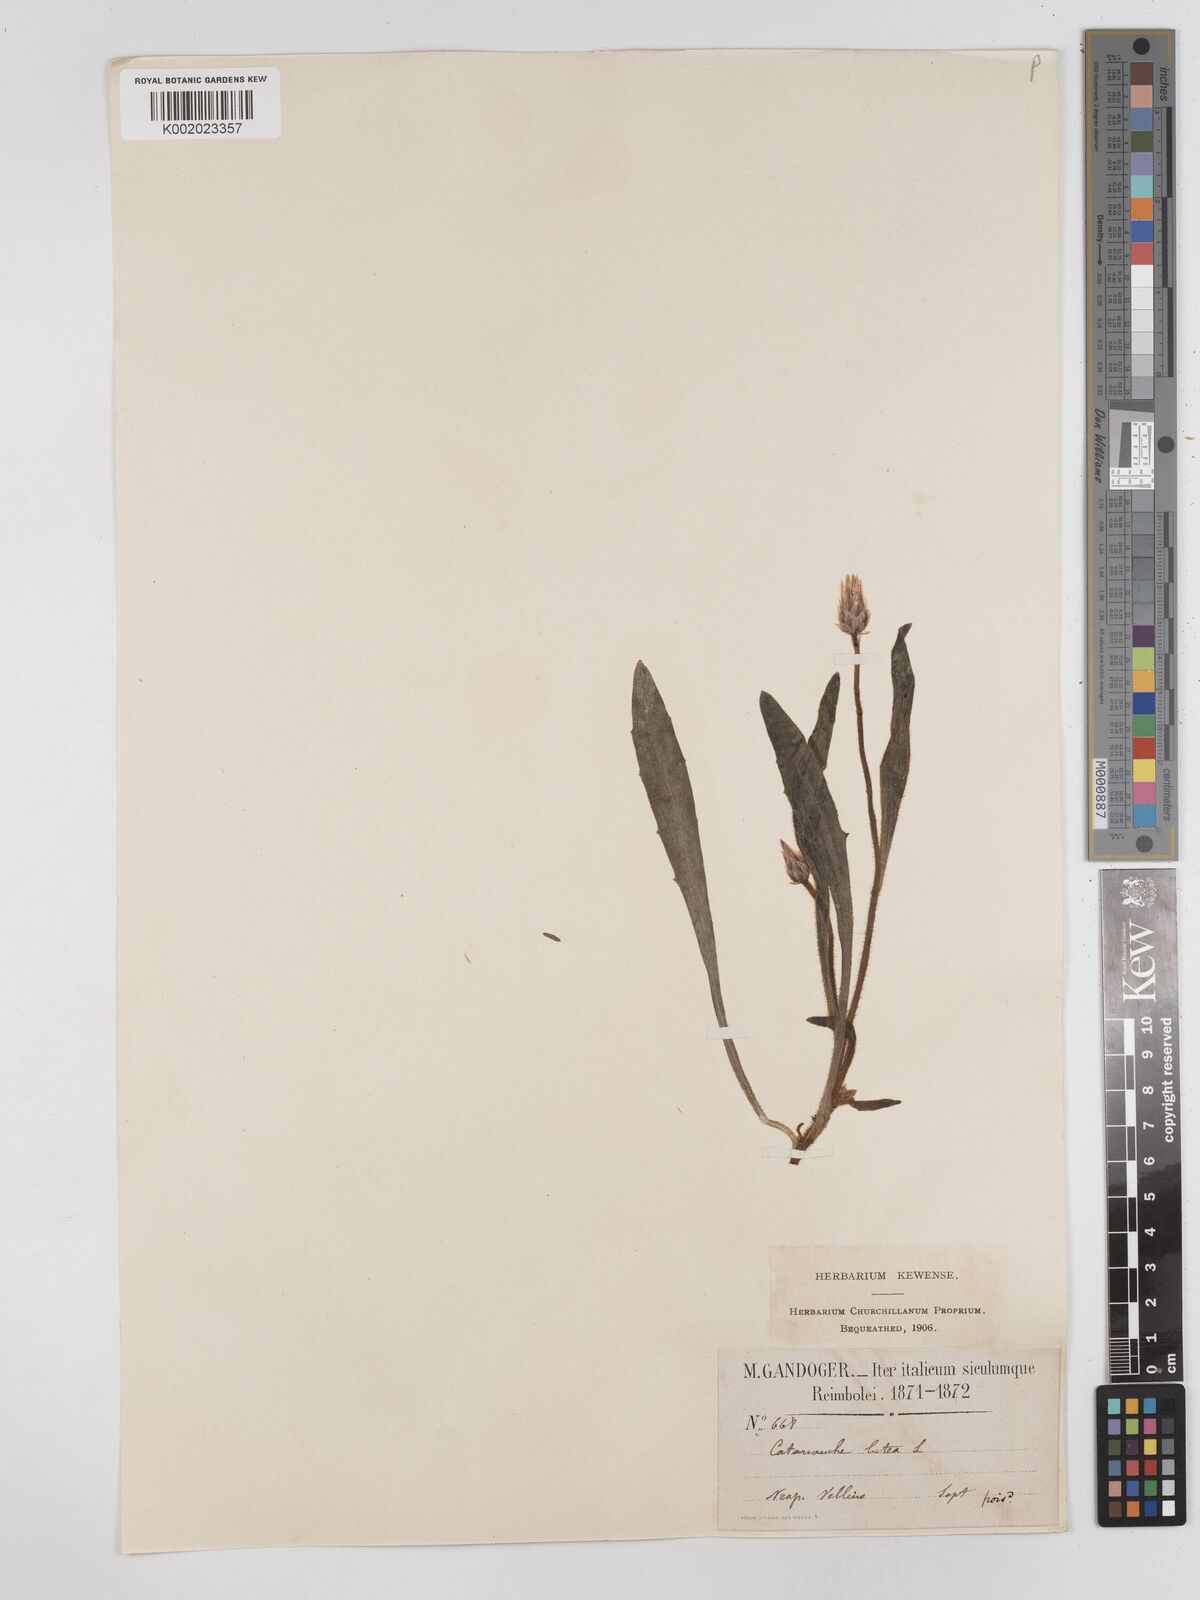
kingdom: Plantae
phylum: Tracheophyta
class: Magnoliopsida
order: Asterales
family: Asteraceae
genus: Catananche
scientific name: Catananche lutea
